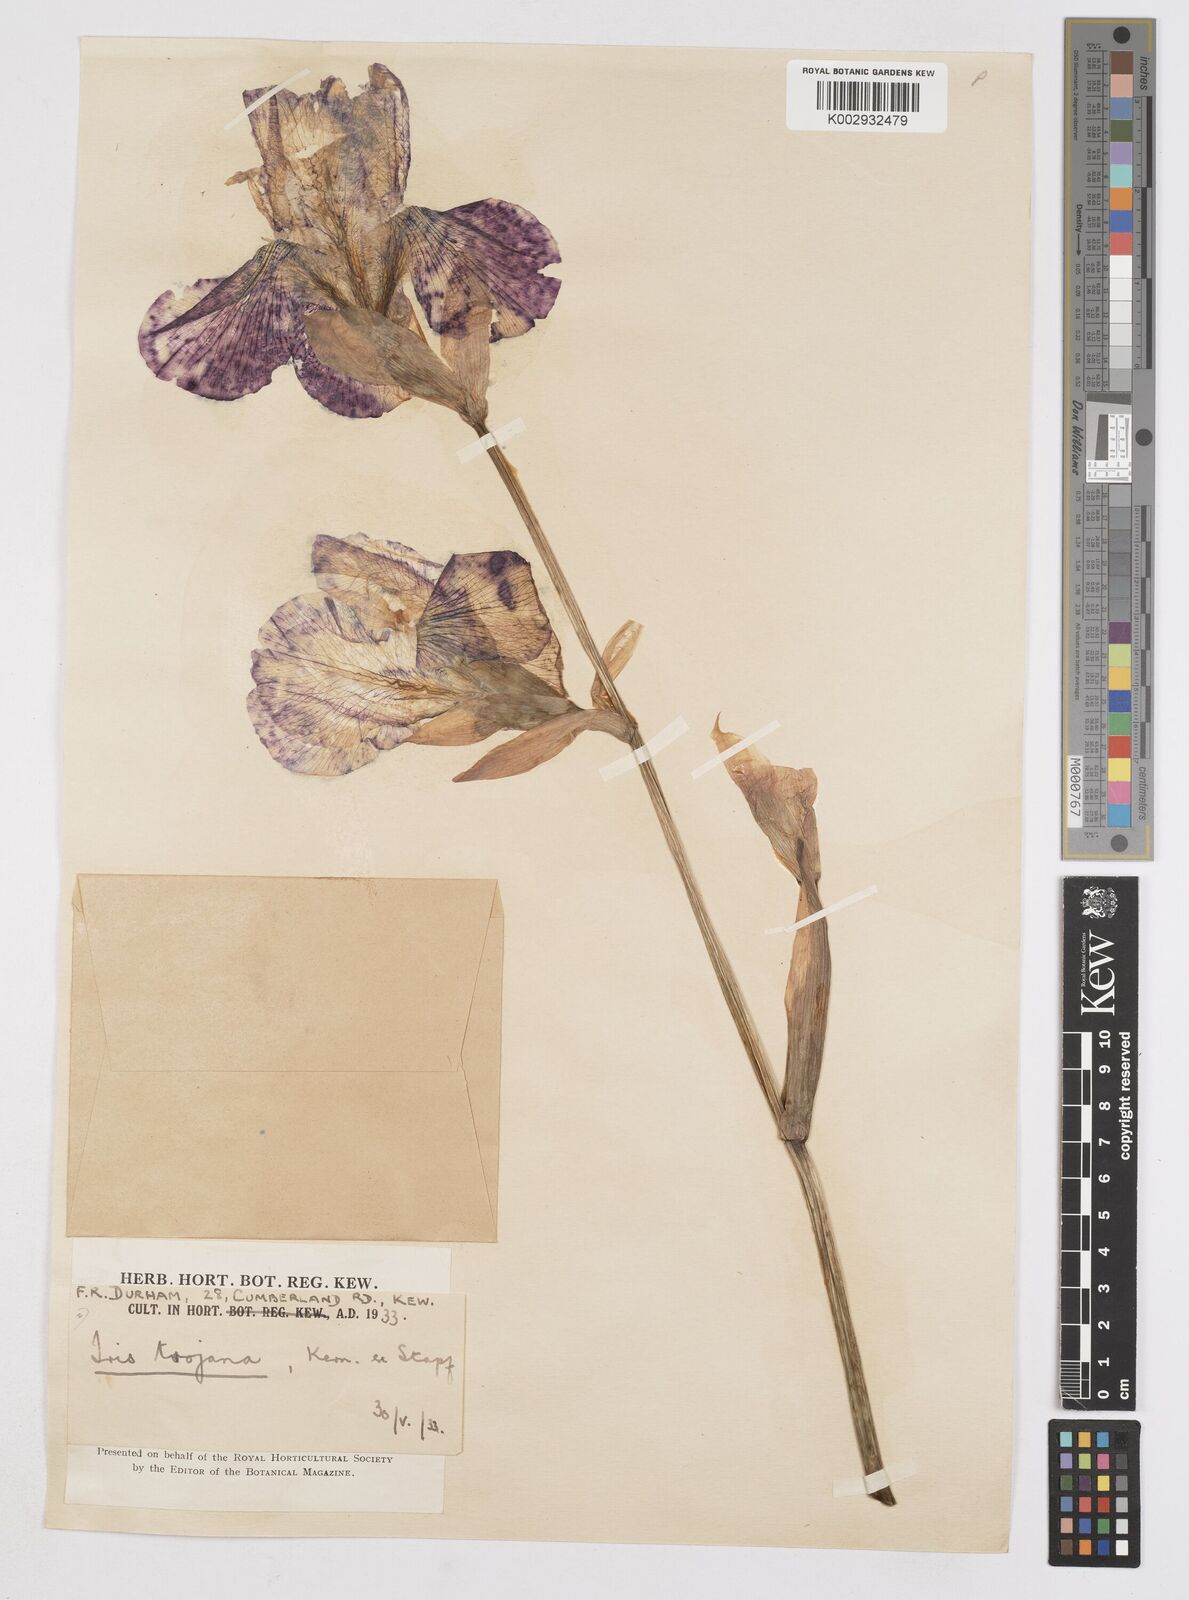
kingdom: Plantae
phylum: Tracheophyta
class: Liliopsida
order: Asparagales
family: Iridaceae
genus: Iris
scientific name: Iris
